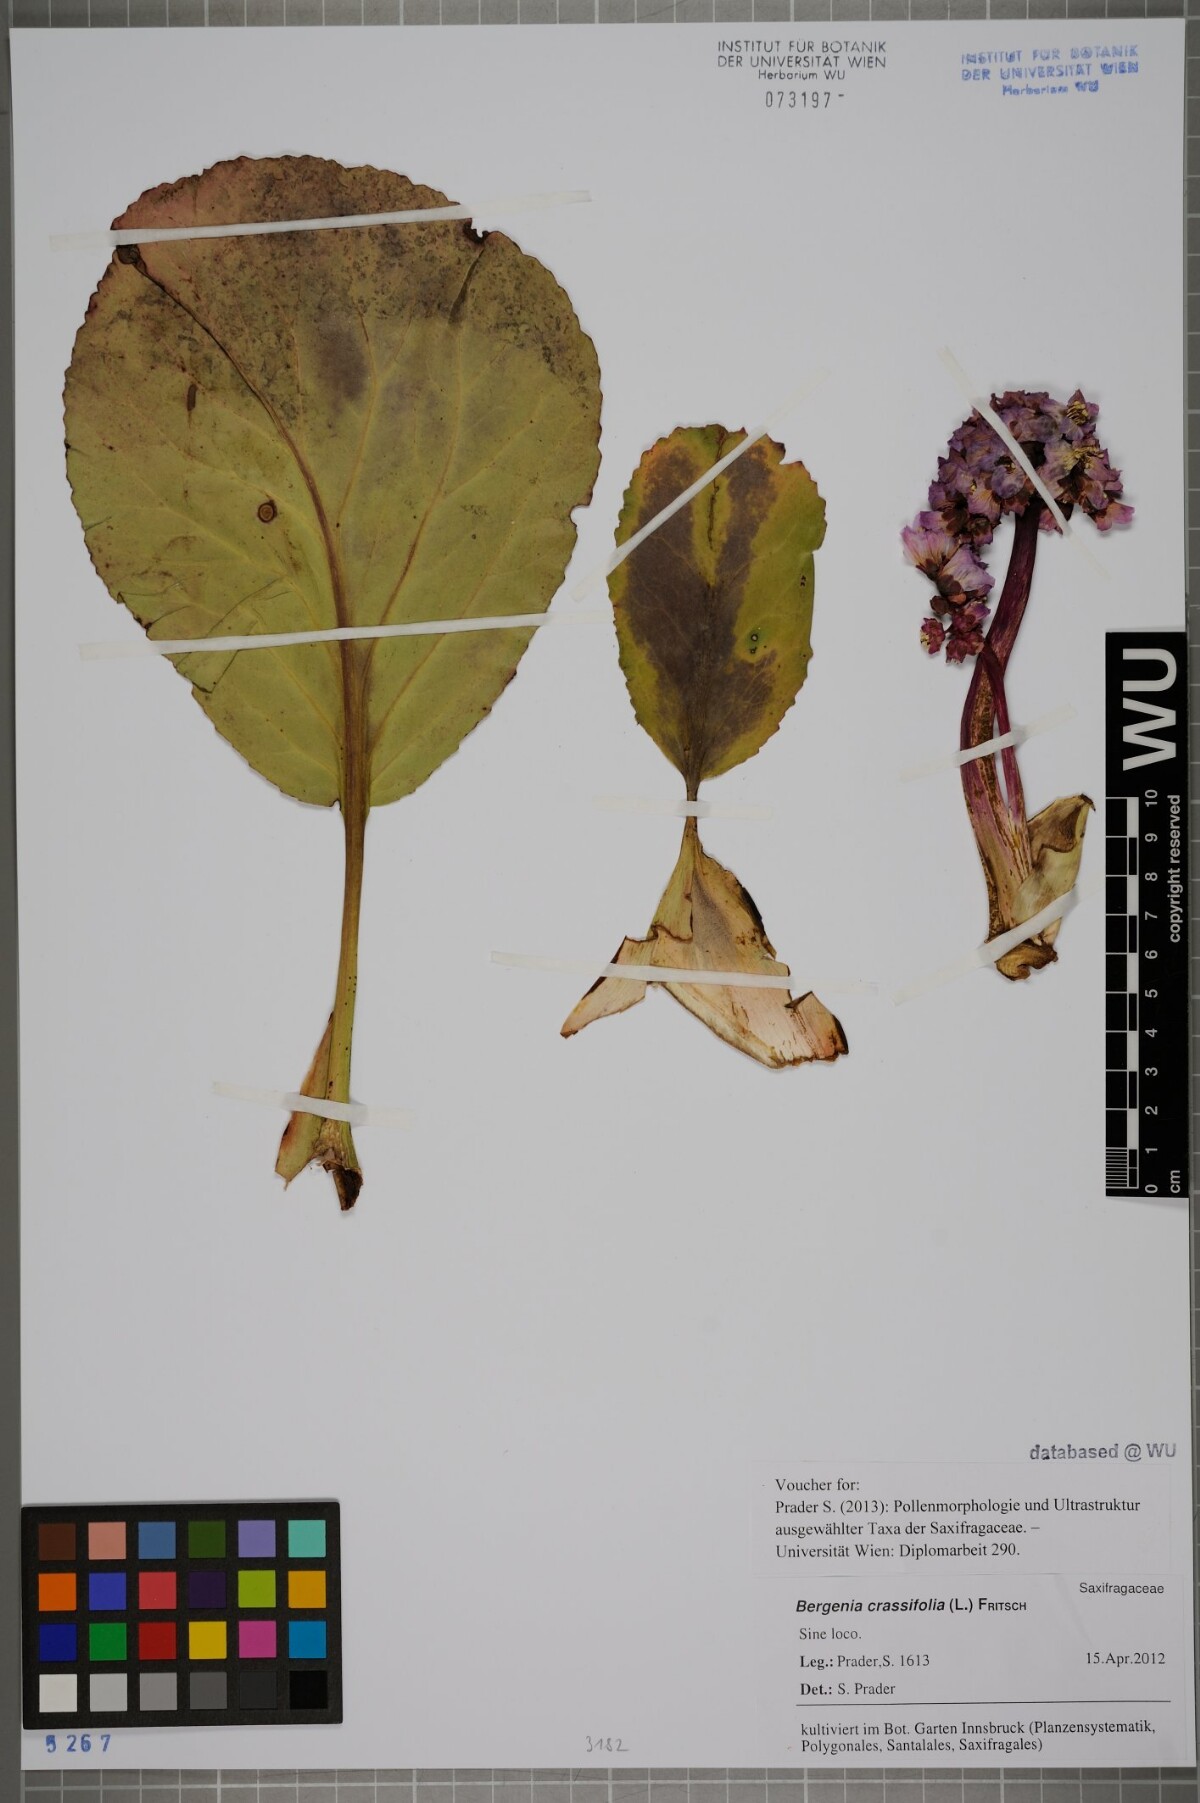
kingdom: Plantae
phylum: Tracheophyta
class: Magnoliopsida
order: Saxifragales
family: Saxifragaceae
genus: Bergenia
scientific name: Bergenia crassifolia
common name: Elephant-ears
